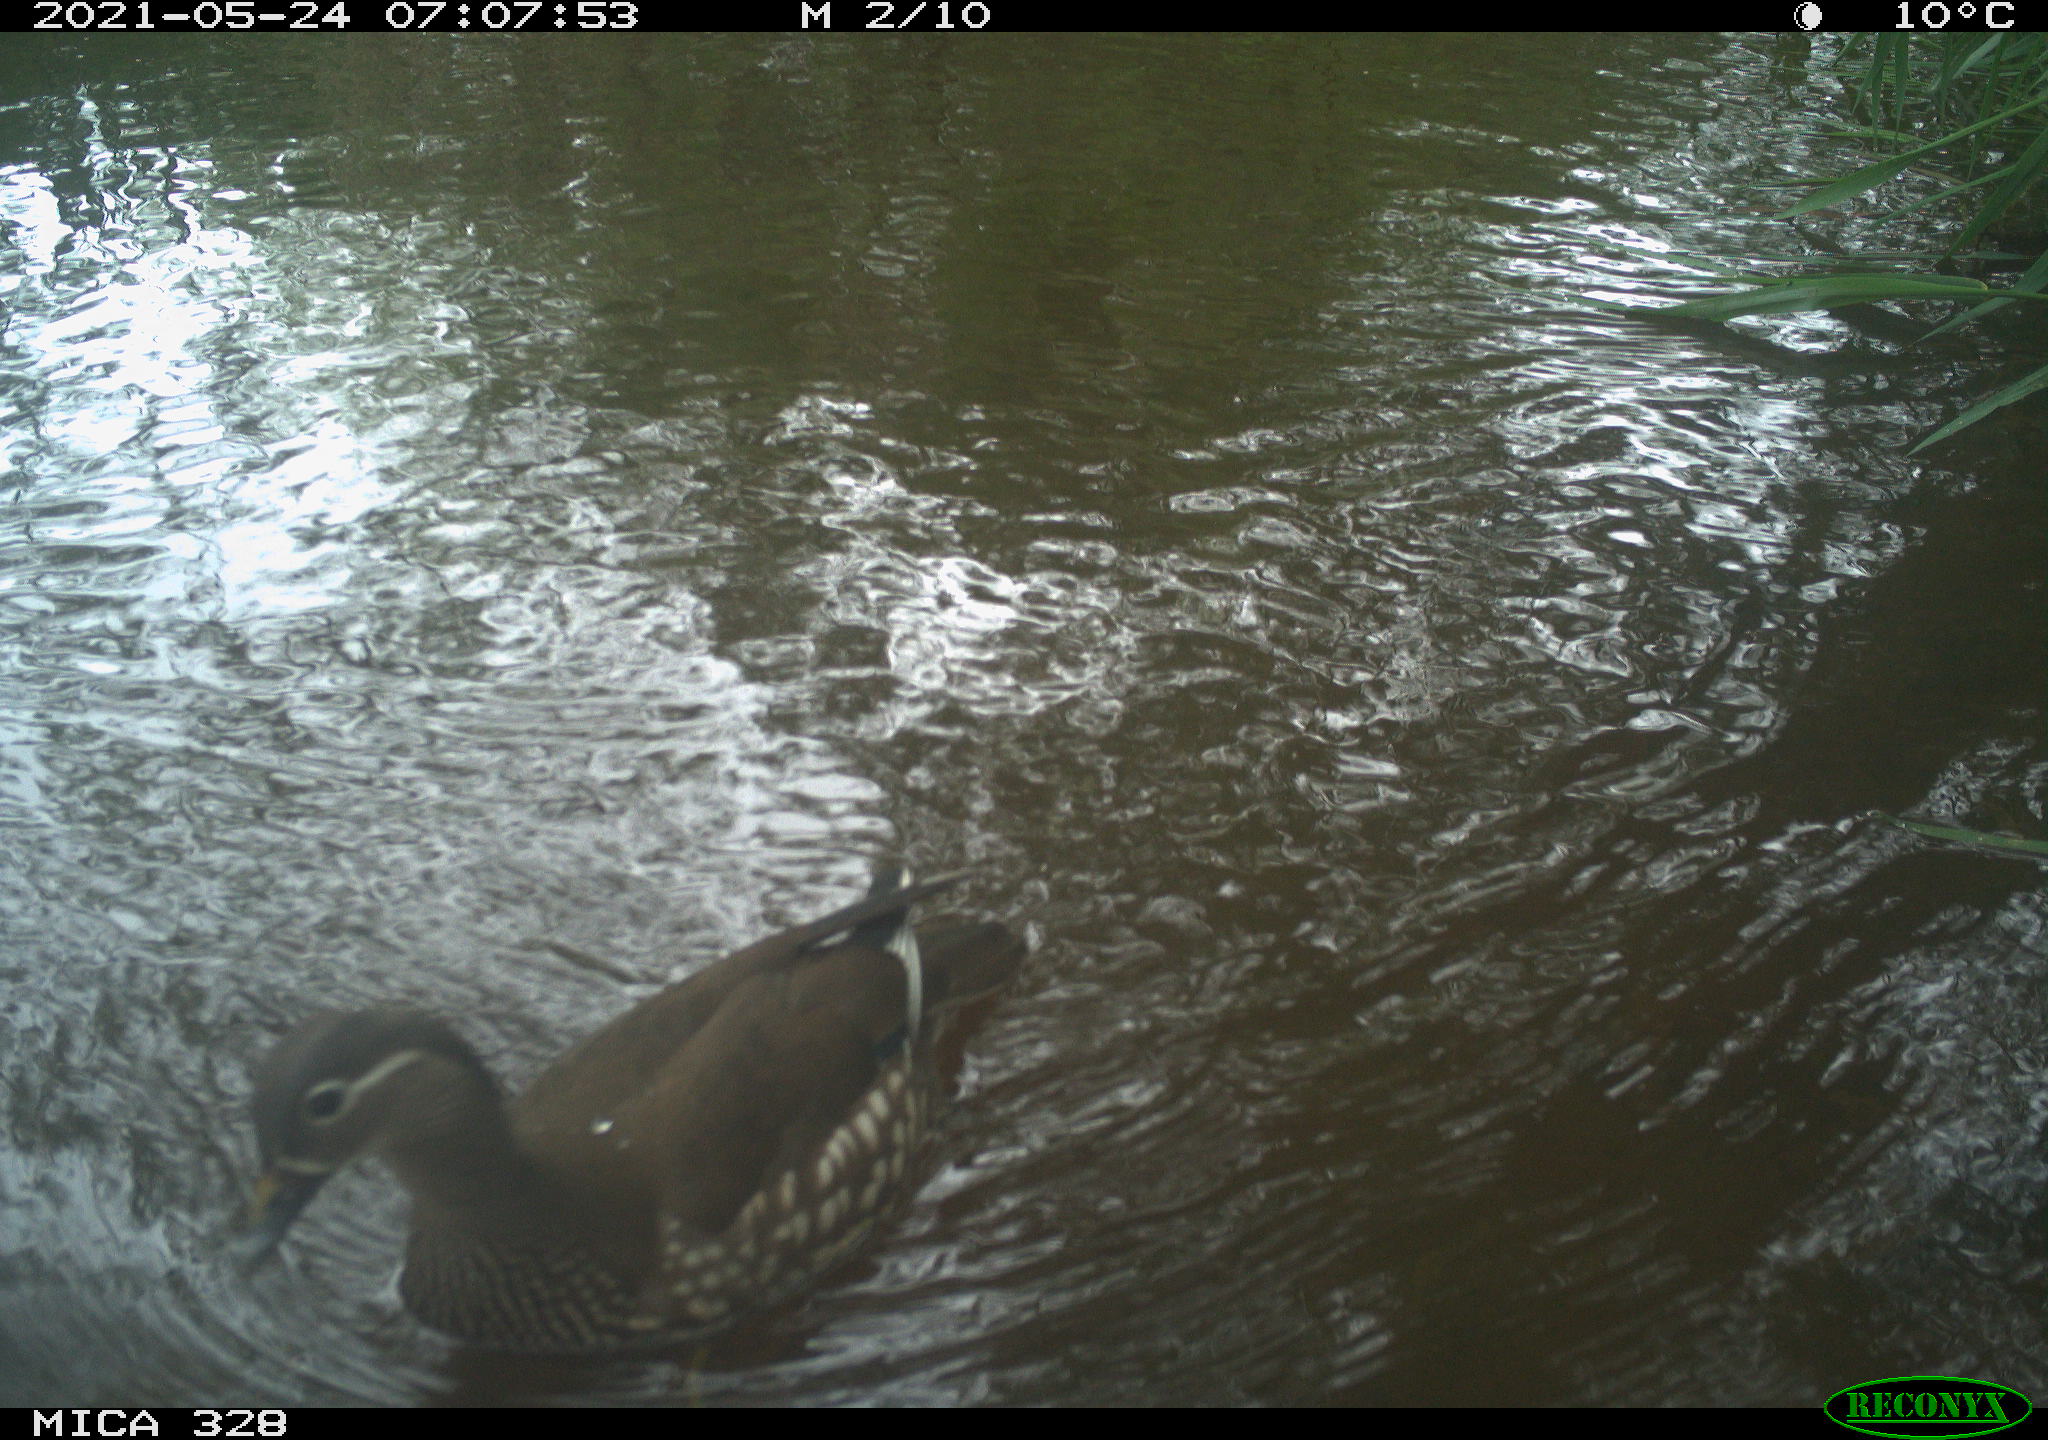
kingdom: Animalia
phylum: Chordata
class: Aves
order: Anseriformes
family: Anatidae
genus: Aix
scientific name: Aix galericulata
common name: Mandarin duck
